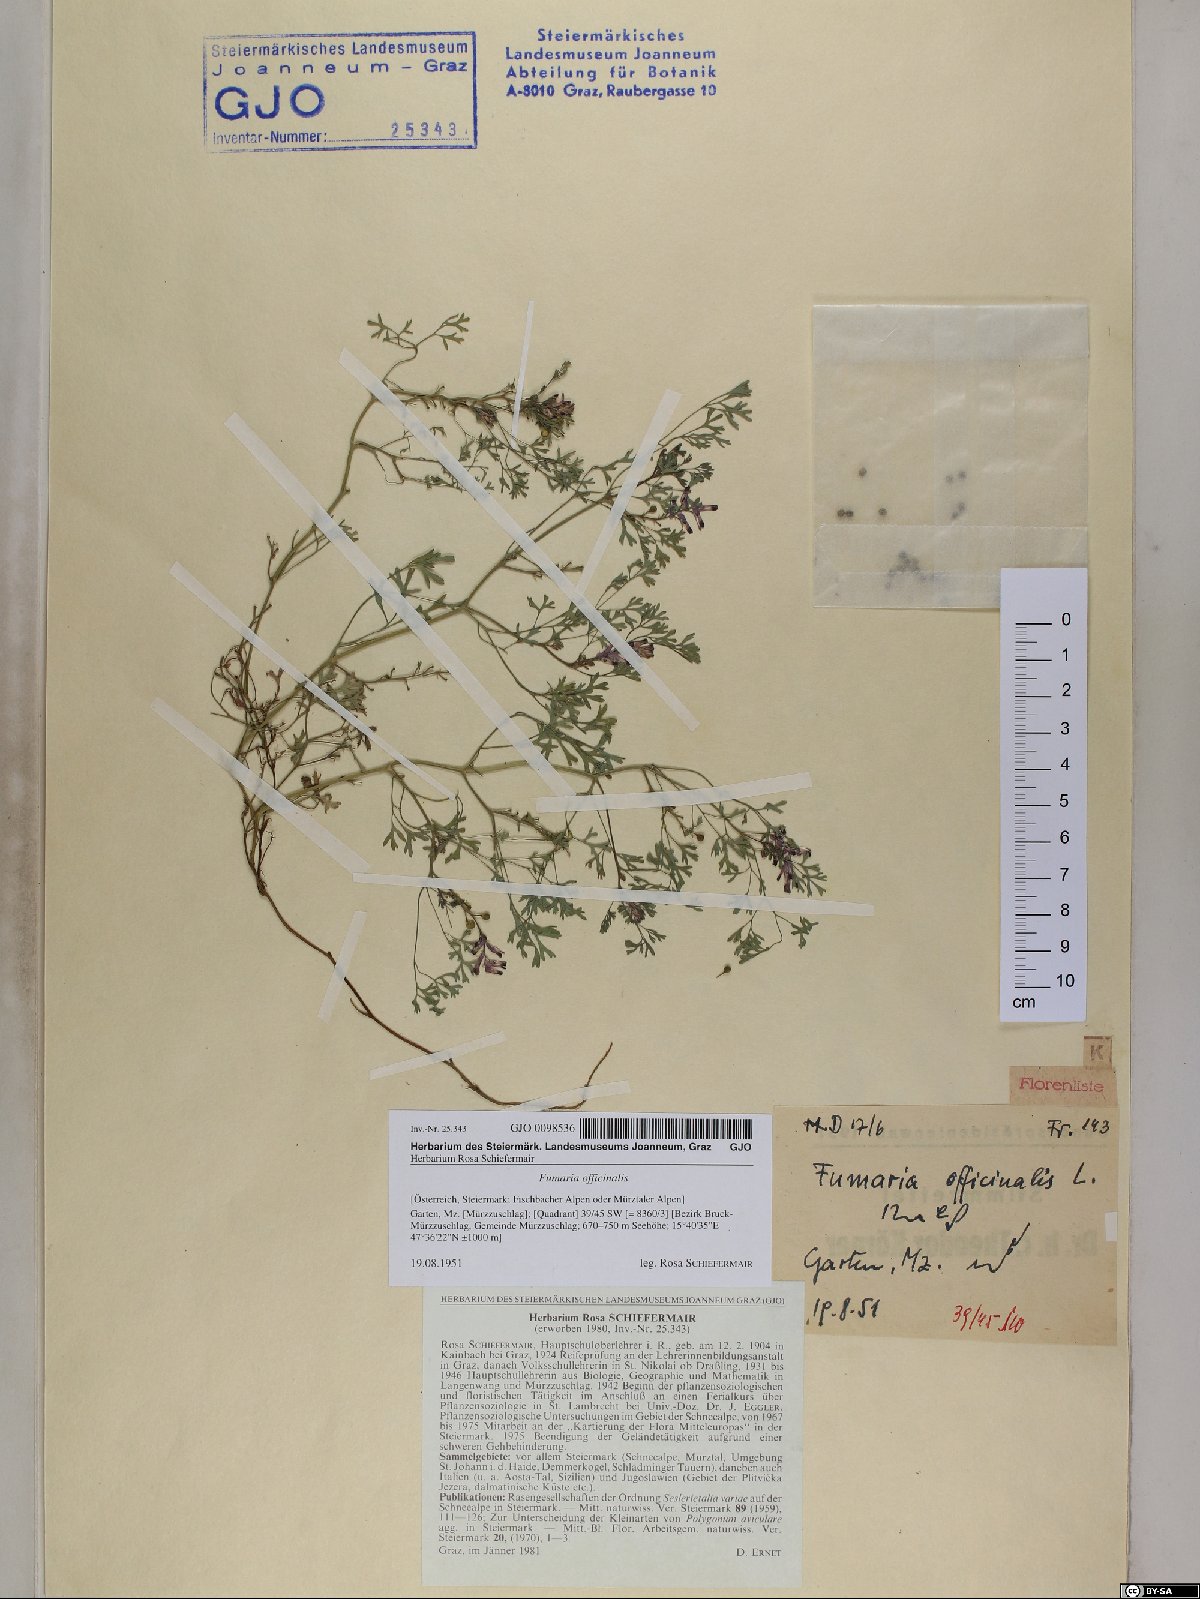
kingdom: Plantae
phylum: Tracheophyta
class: Magnoliopsida
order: Ranunculales
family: Papaveraceae
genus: Fumaria
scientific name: Fumaria officinalis
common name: Common fumitory
